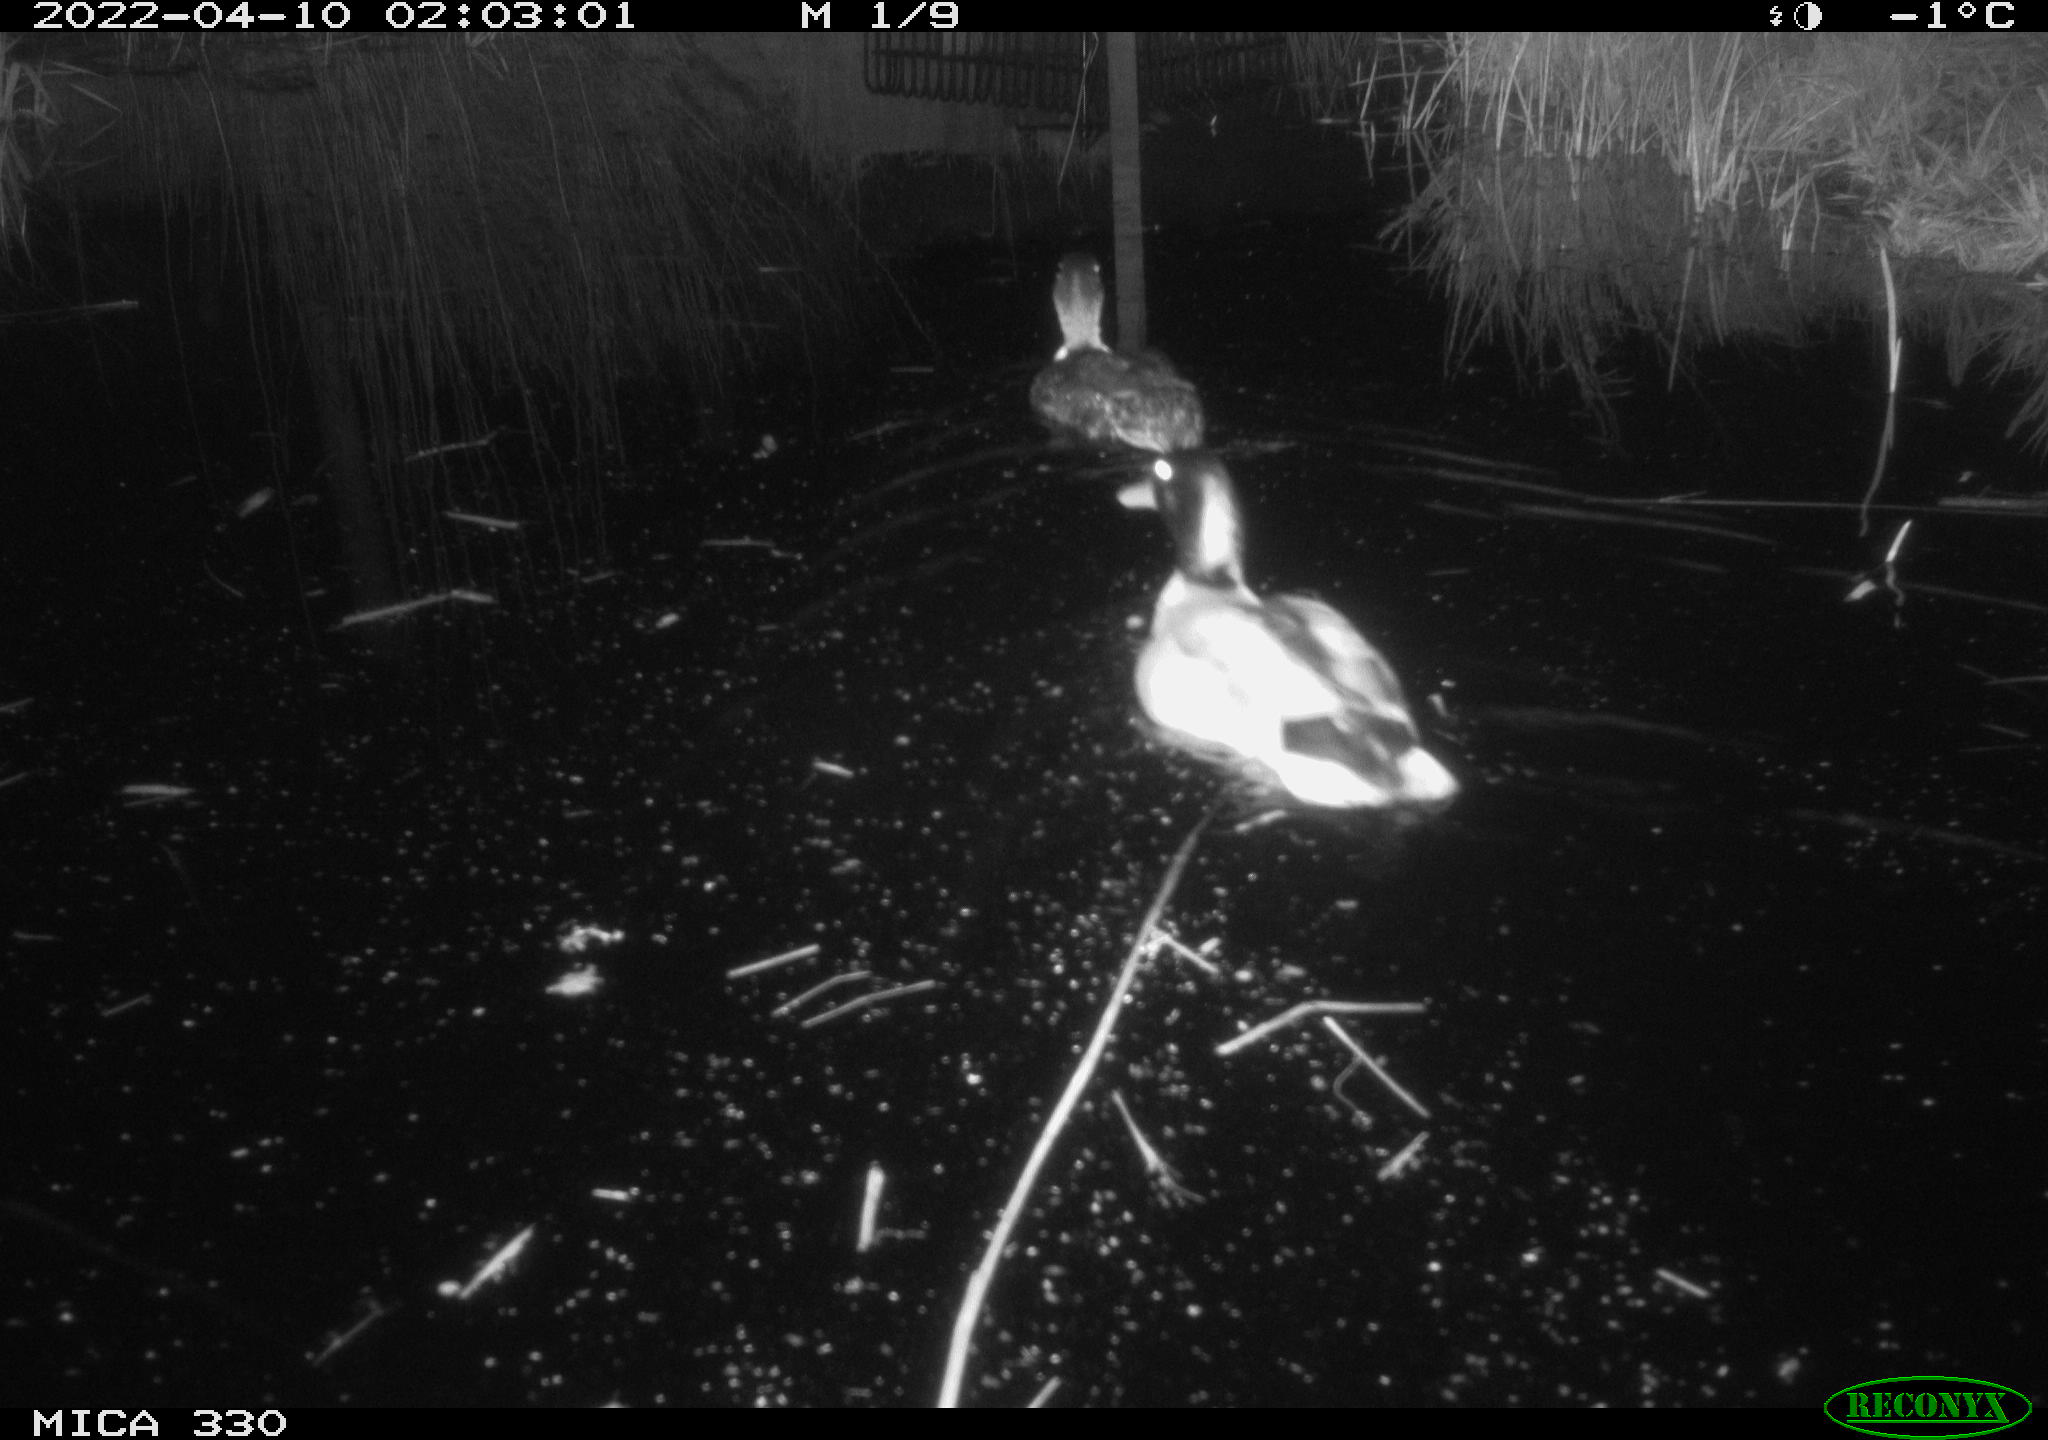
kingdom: Animalia
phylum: Chordata
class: Aves
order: Anseriformes
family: Anatidae
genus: Anas
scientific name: Anas platyrhynchos
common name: Mallard
